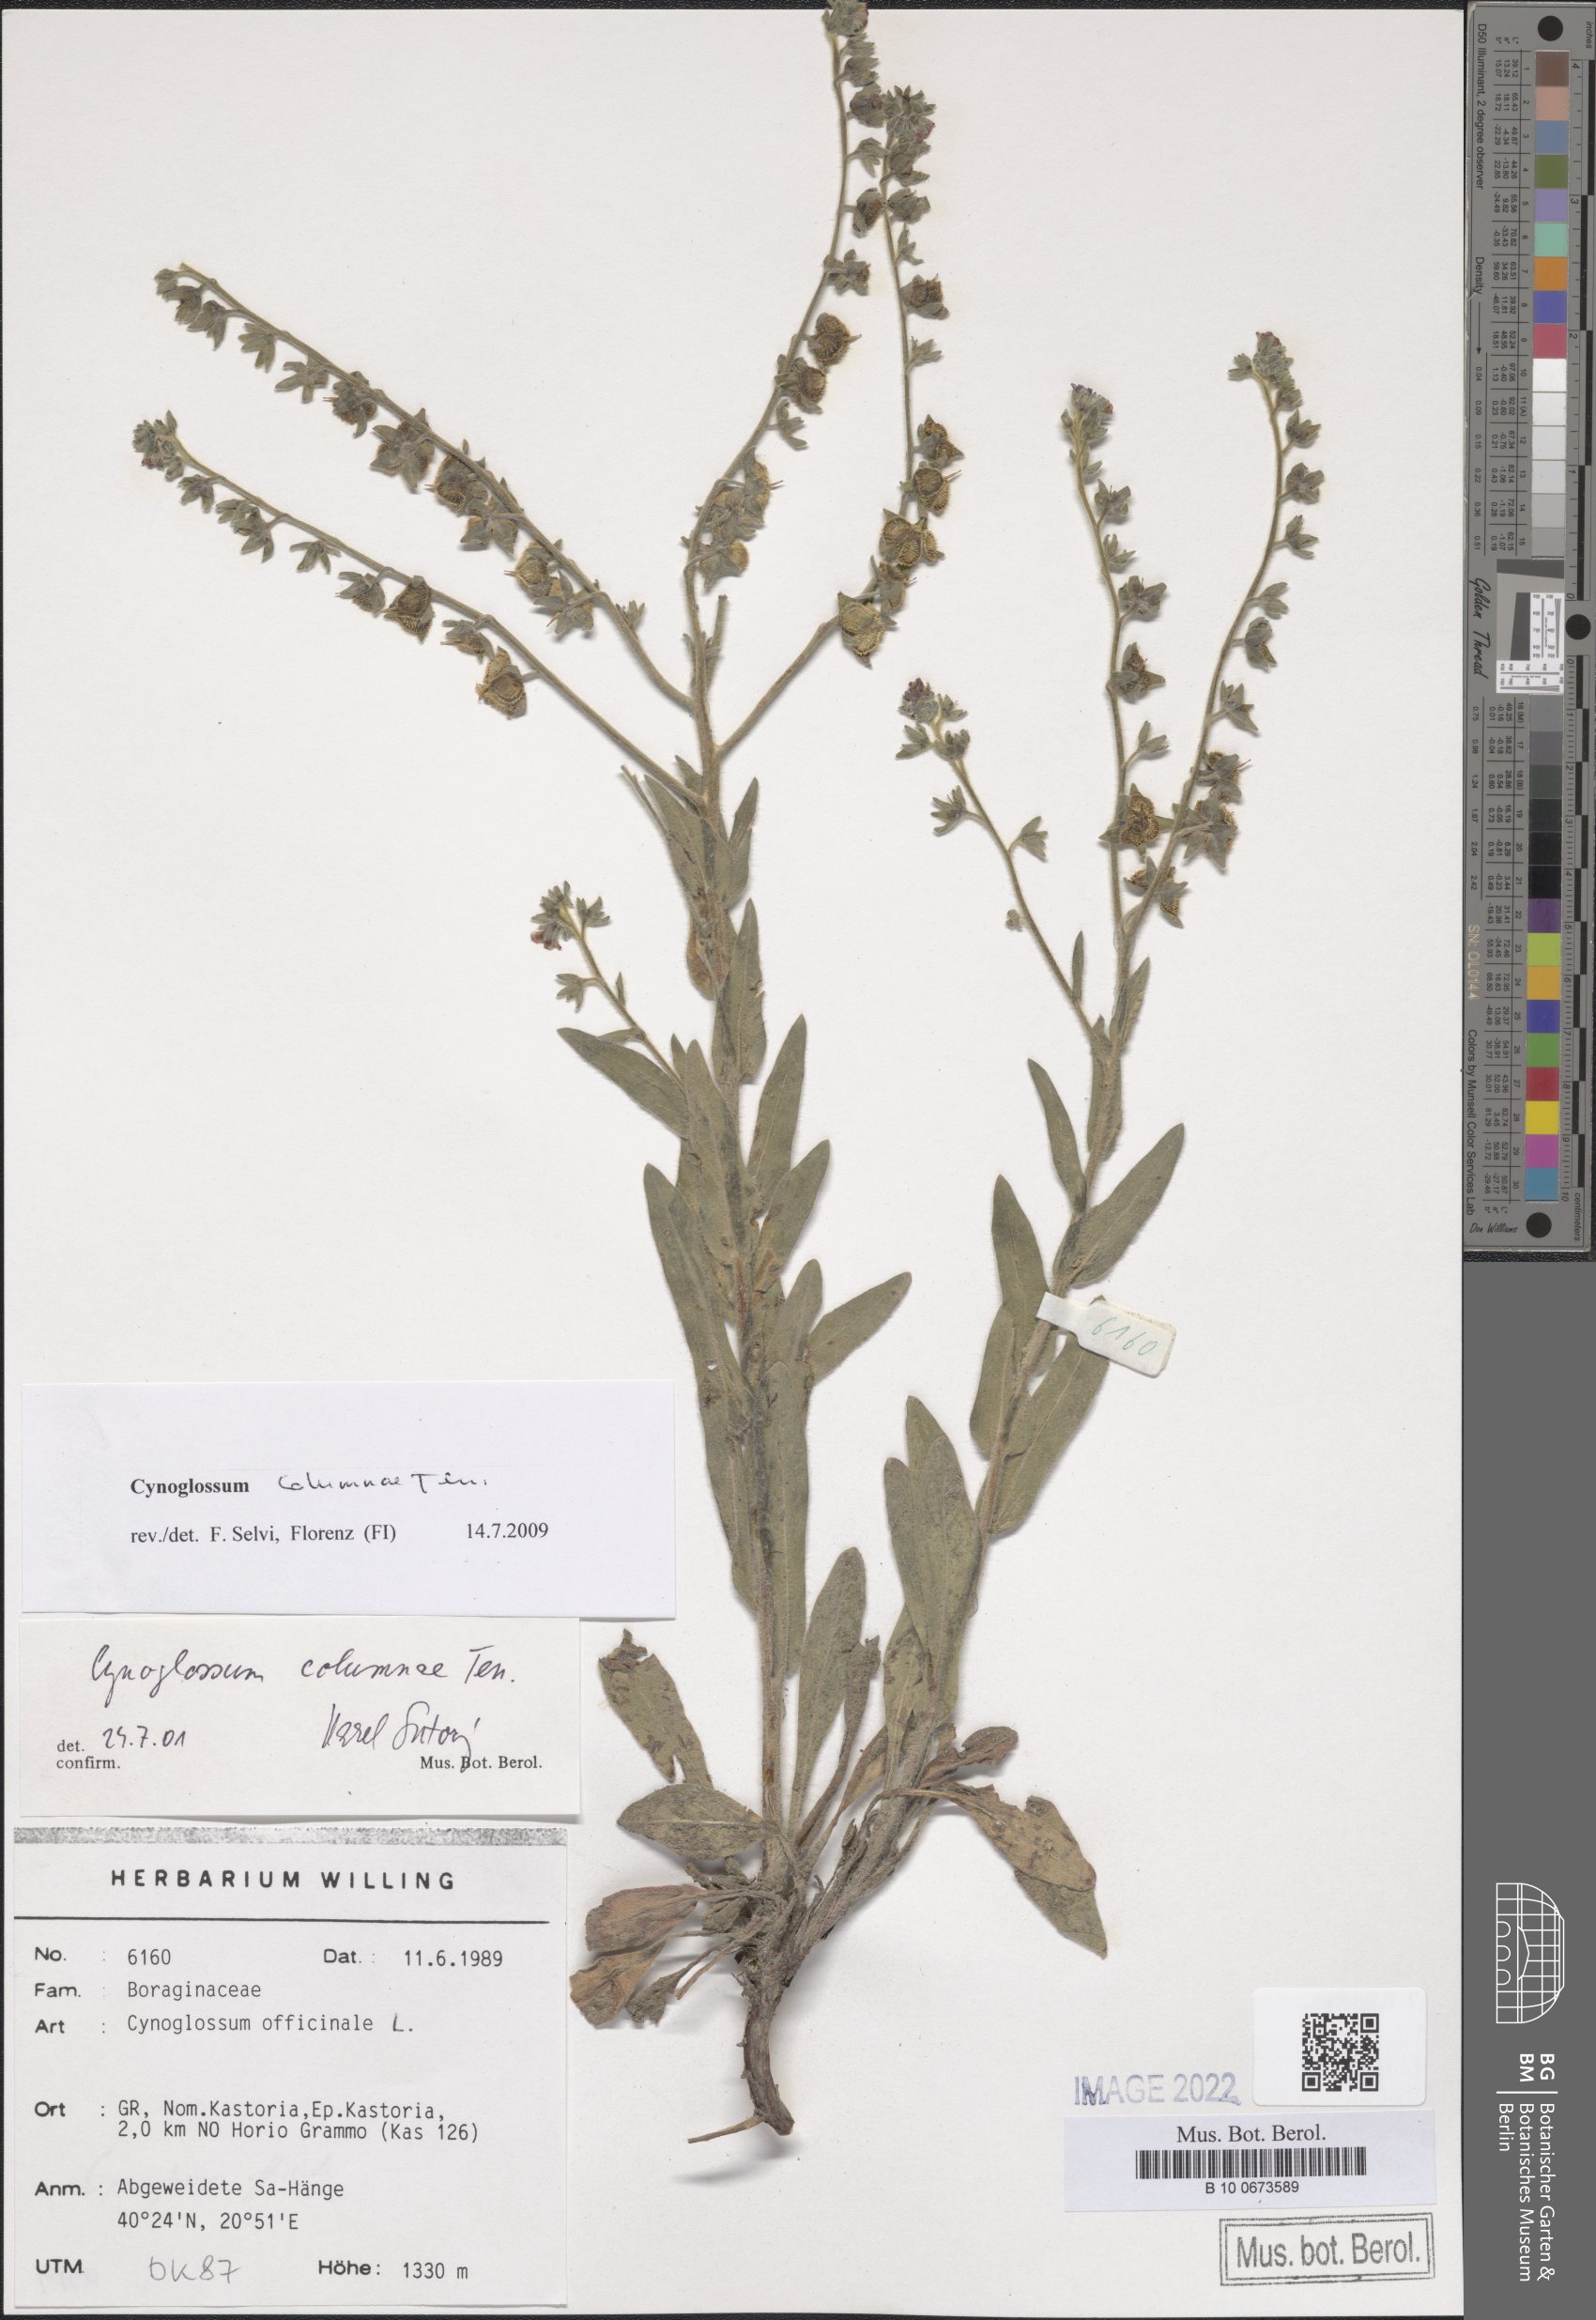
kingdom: Plantae
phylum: Tracheophyta
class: Magnoliopsida
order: Boraginales
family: Boraginaceae
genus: Rindera
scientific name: Rindera columnae
